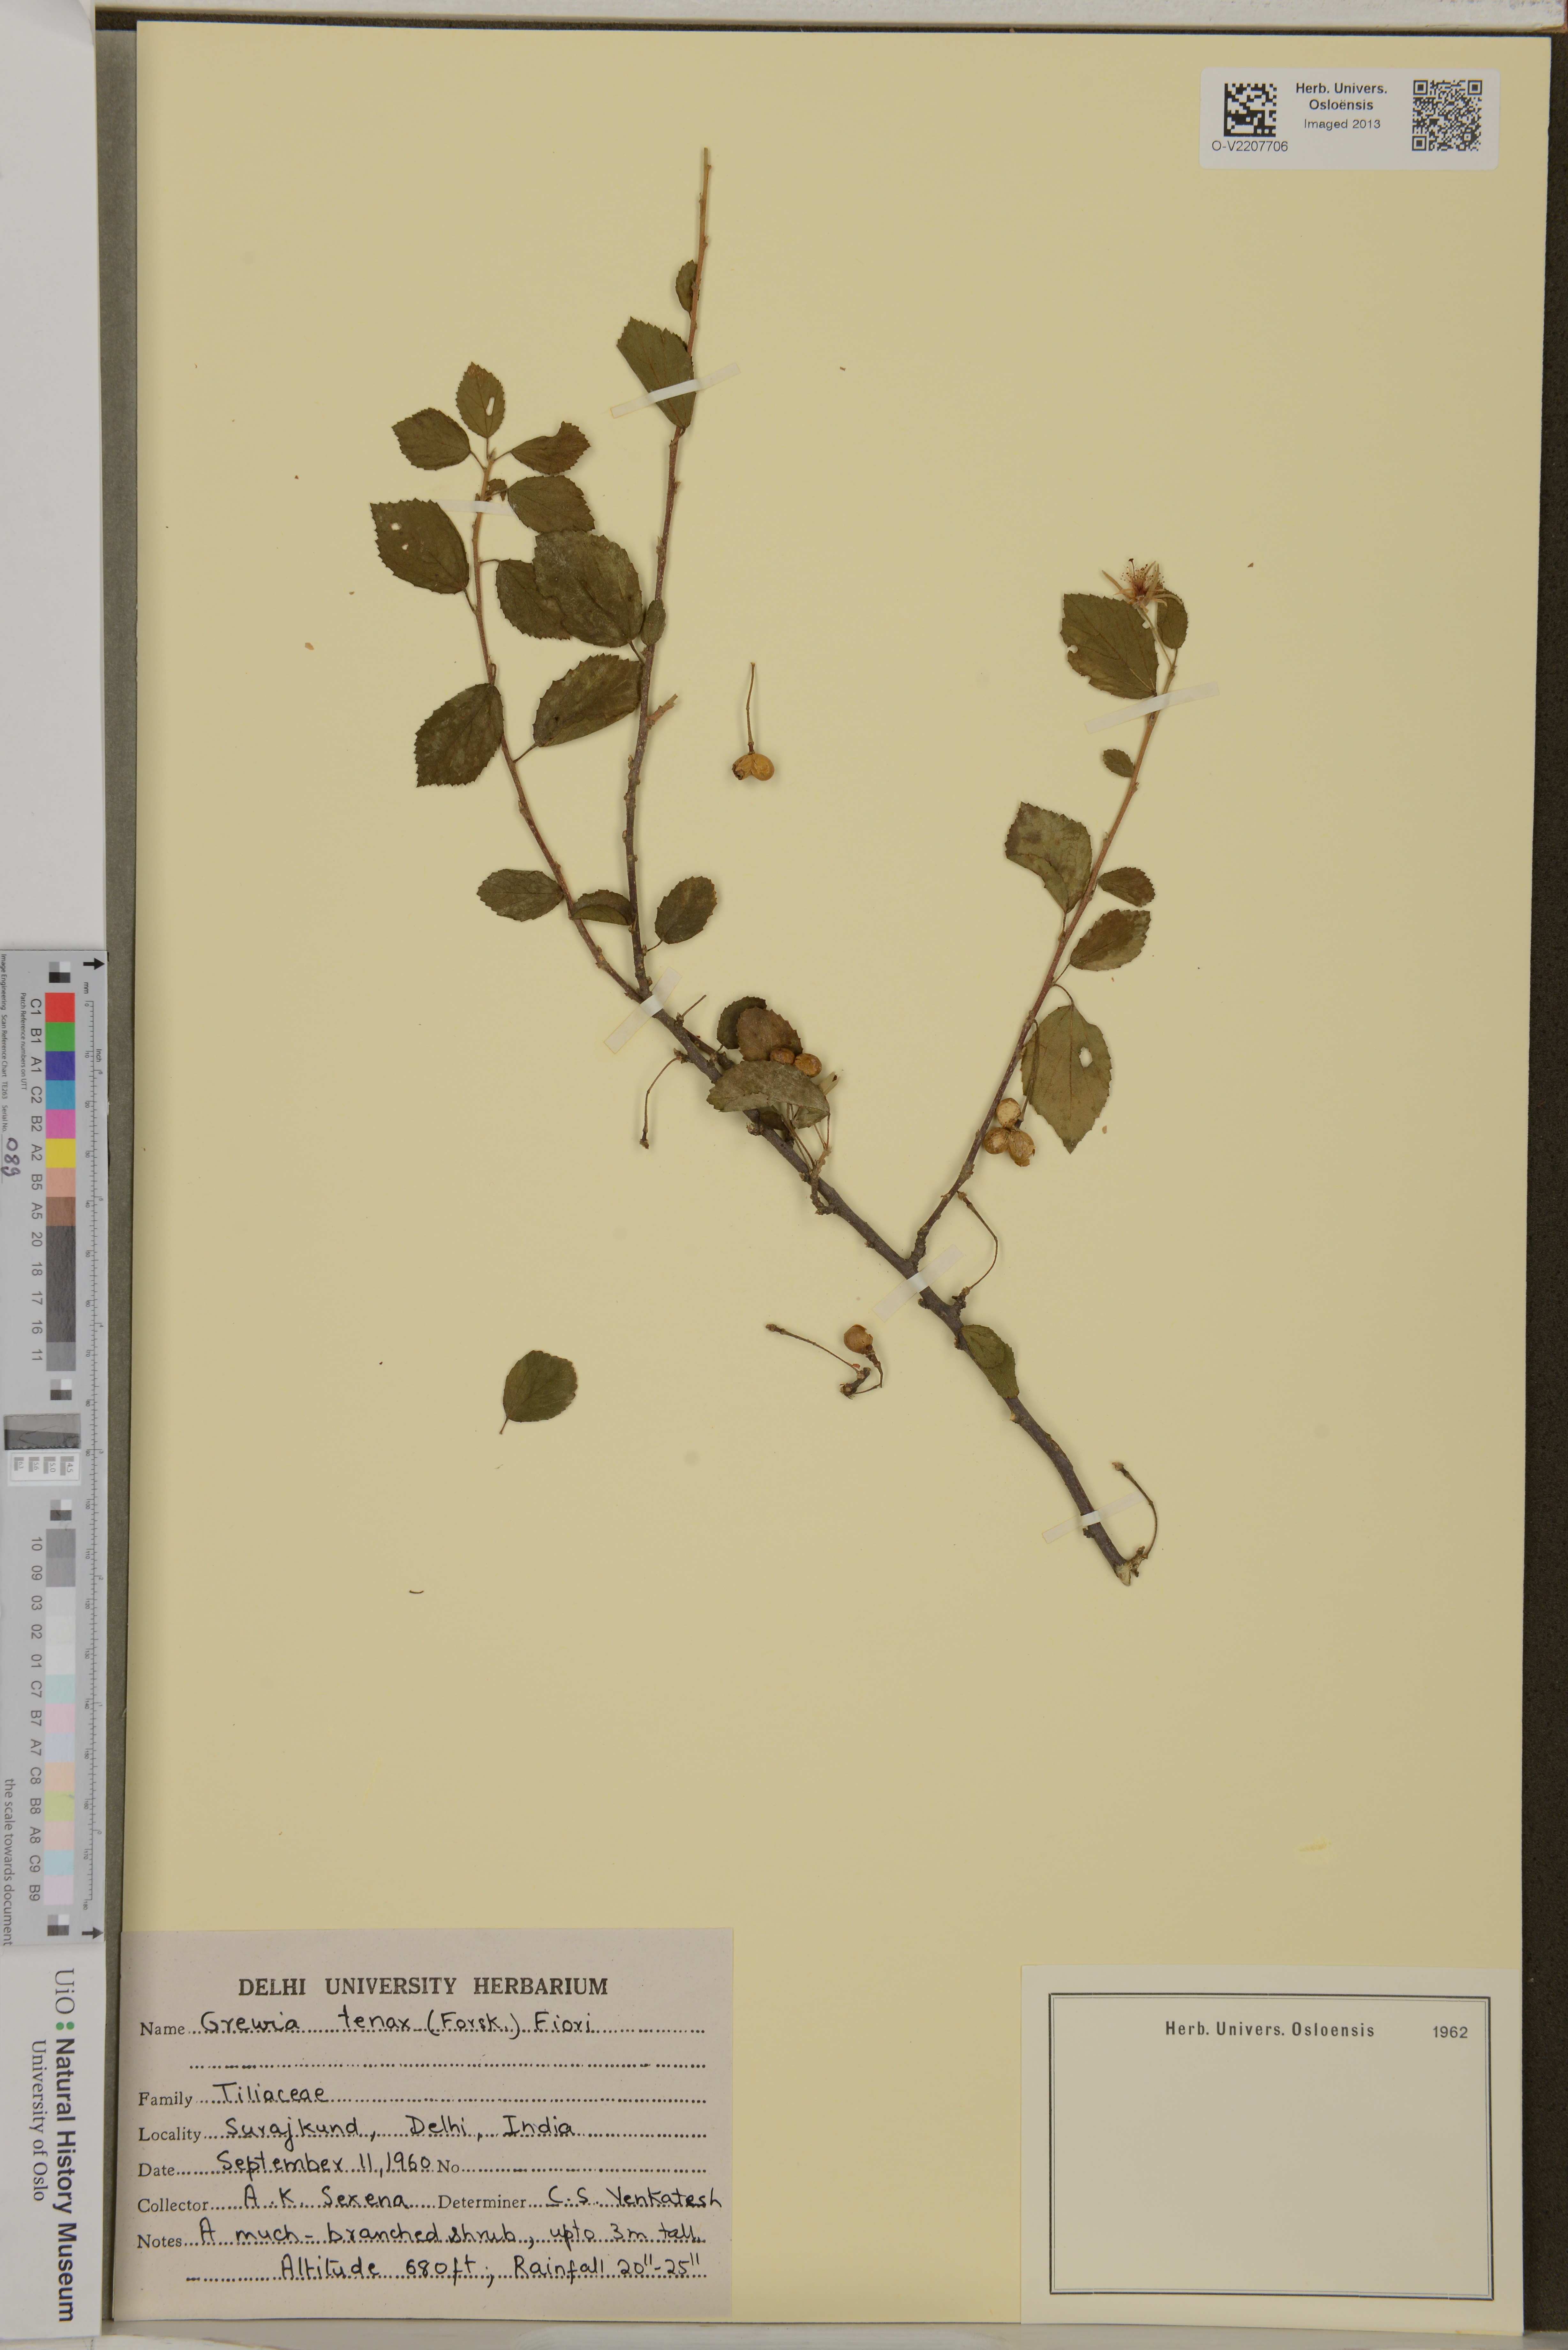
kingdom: Plantae
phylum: Tracheophyta
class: Magnoliopsida
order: Malvales
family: Malvaceae
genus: Grewia
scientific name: Grewia tenax
